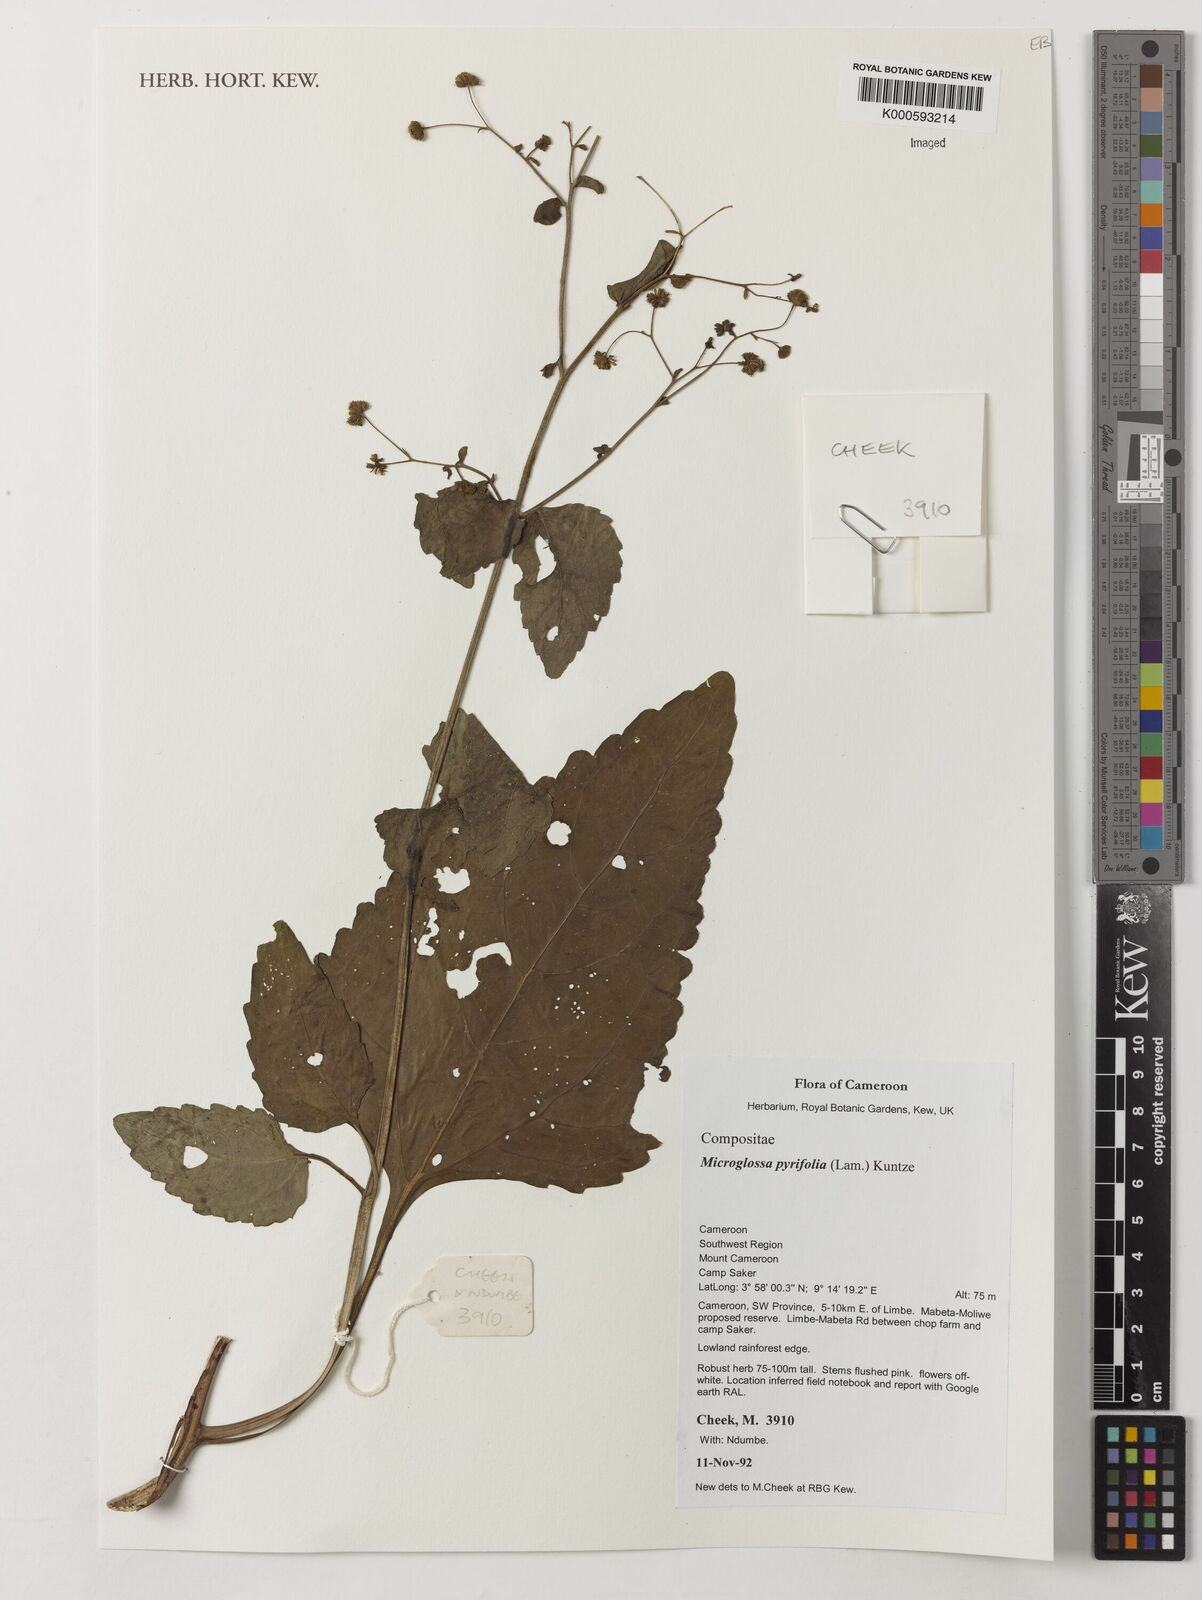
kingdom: Plantae
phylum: Tracheophyta
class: Magnoliopsida
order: Asterales
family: Asteraceae
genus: Microglossa
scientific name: Microglossa pyrifolia
